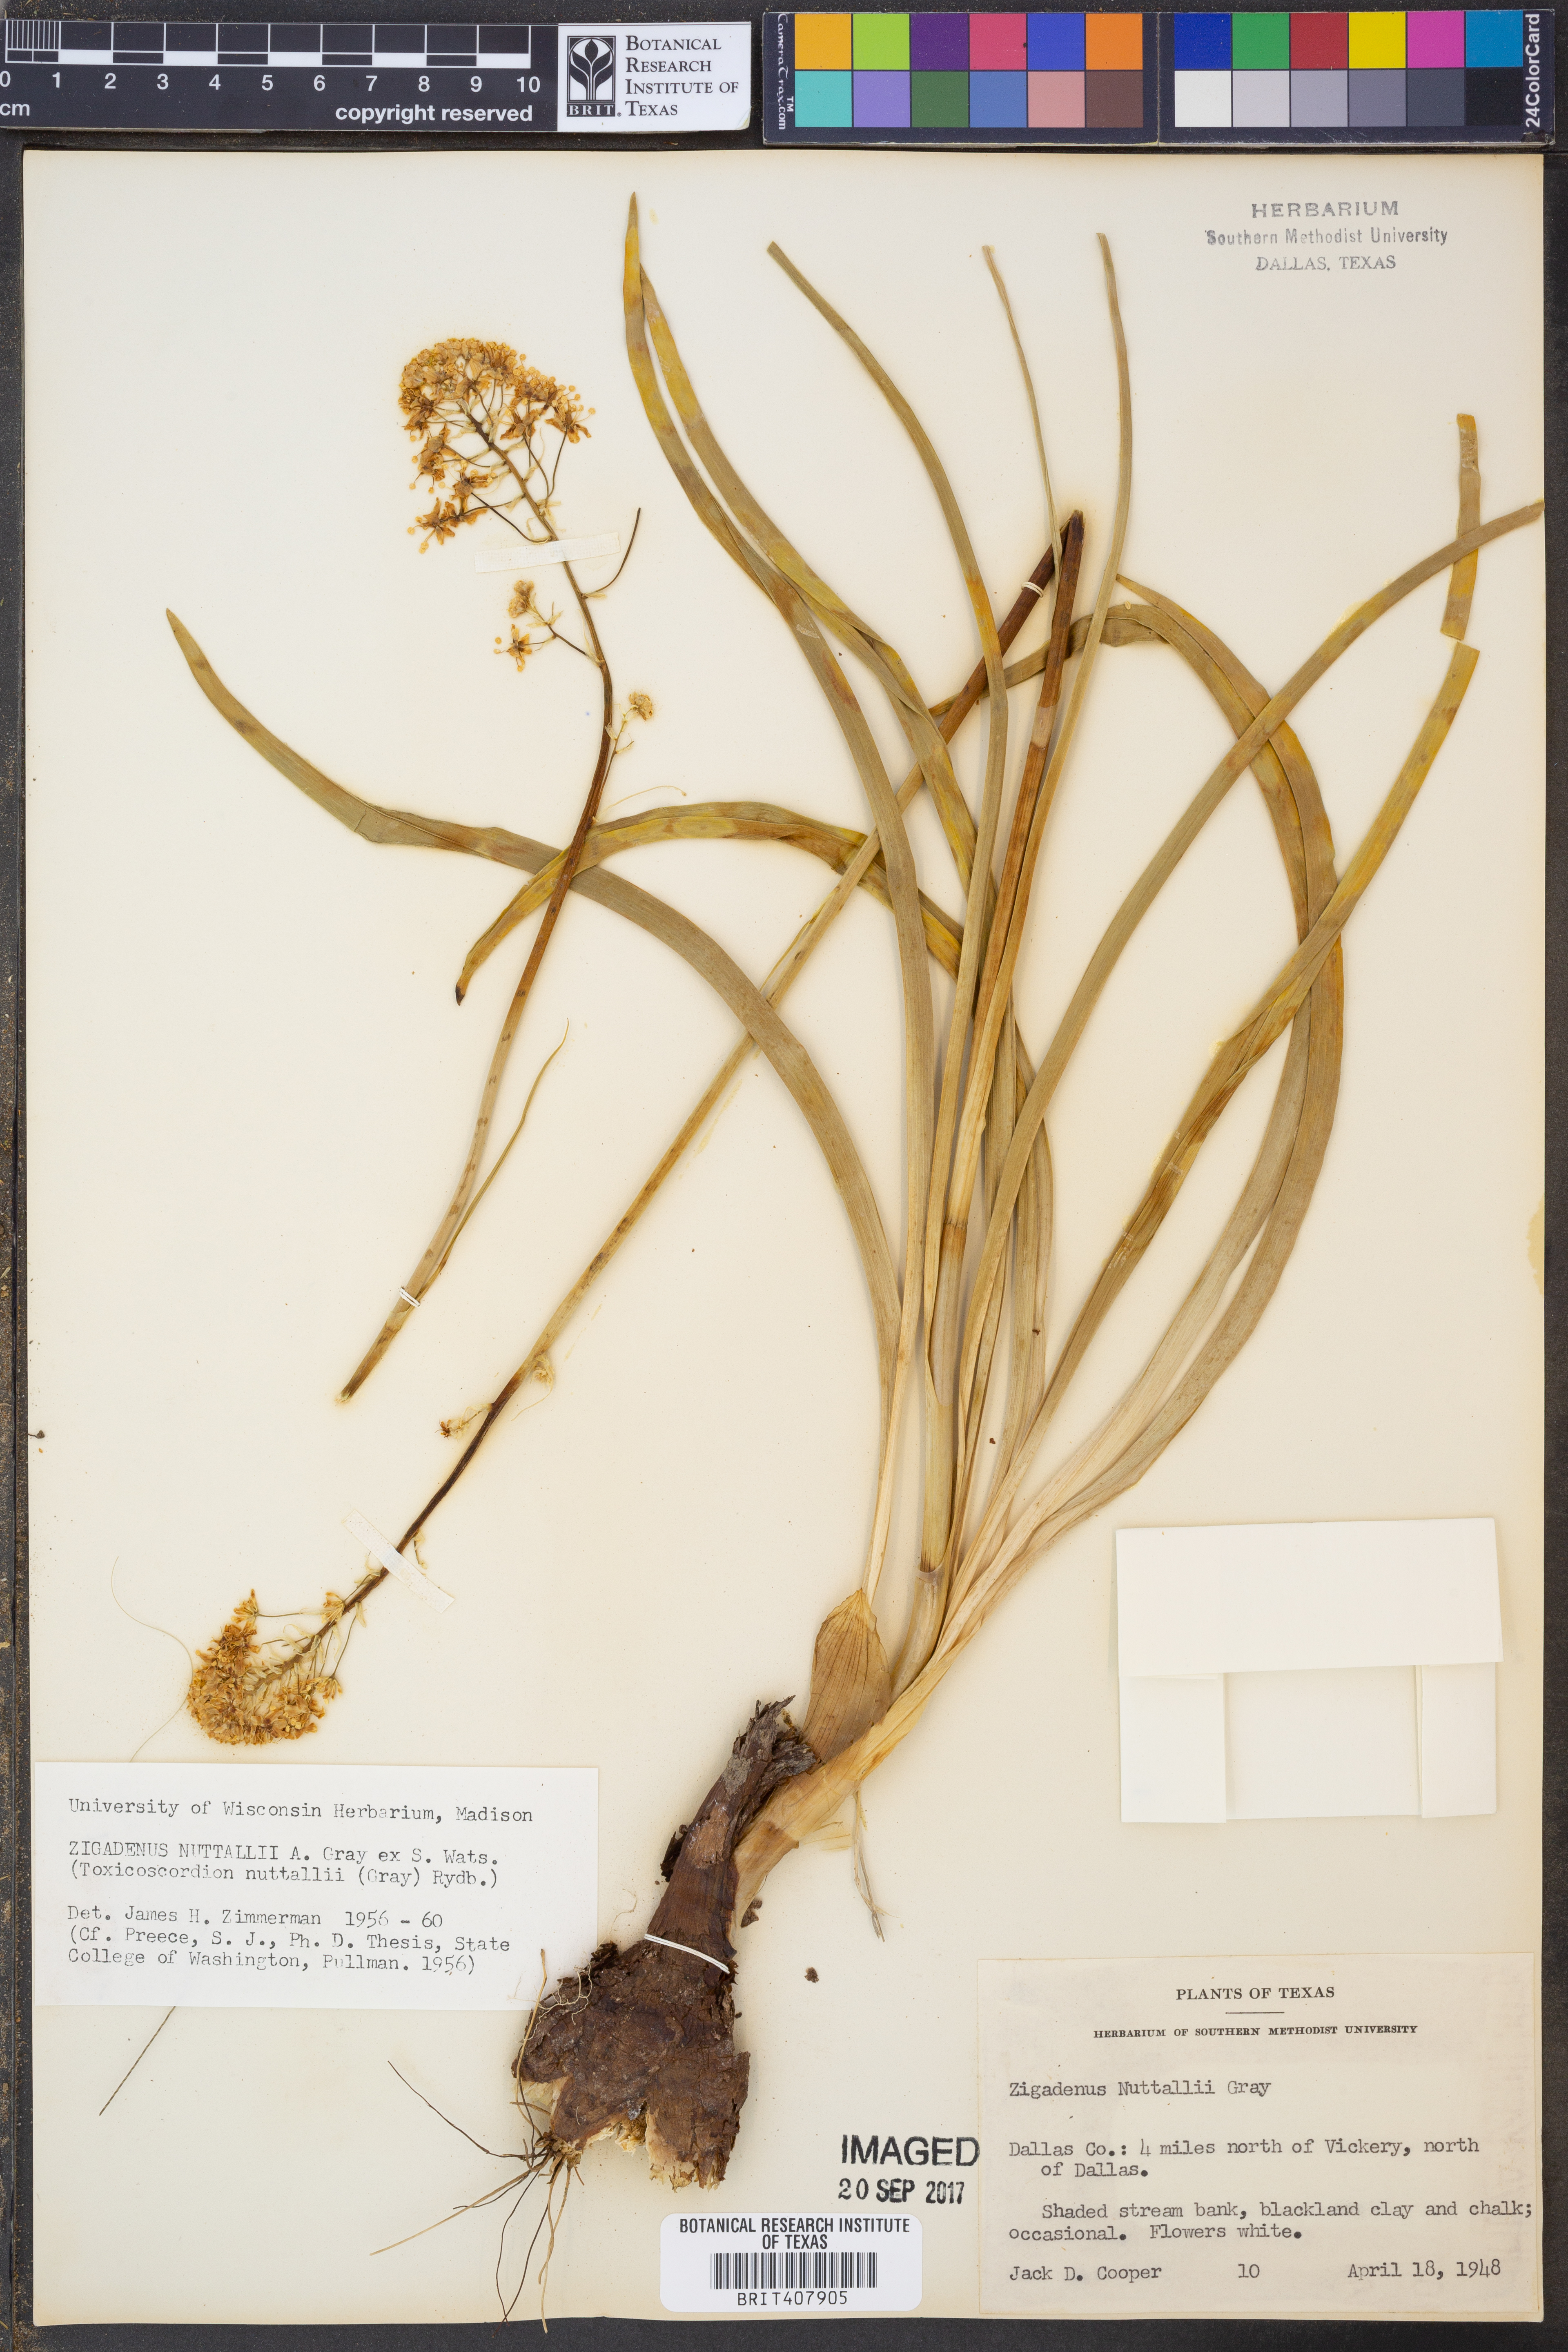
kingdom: Plantae
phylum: Tracheophyta
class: Liliopsida
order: Liliales
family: Melanthiaceae
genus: Toxicoscordion
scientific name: Toxicoscordion nuttallii
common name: Poison sego
